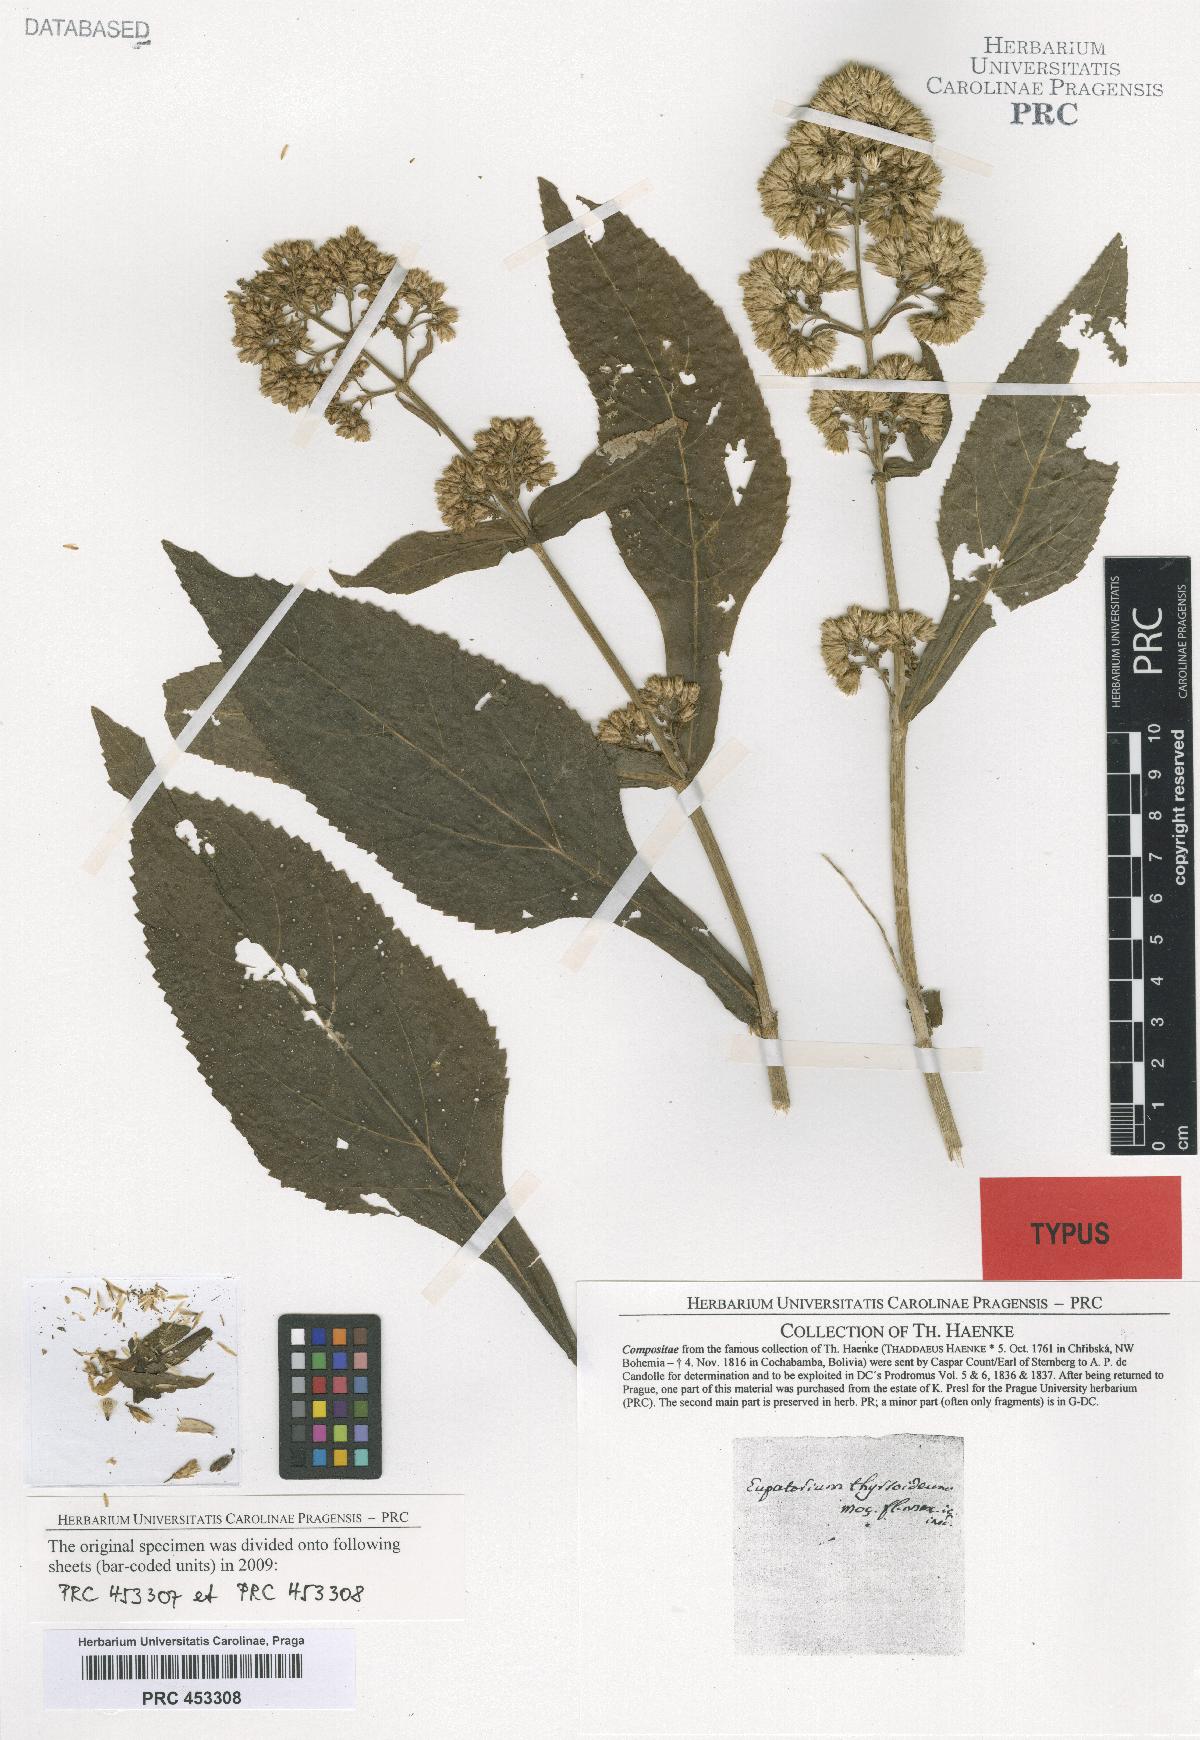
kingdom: Plantae
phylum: Tracheophyta
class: Magnoliopsida
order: Asterales
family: Asteraceae
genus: Critonia
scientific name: Critonia quadrangularis
